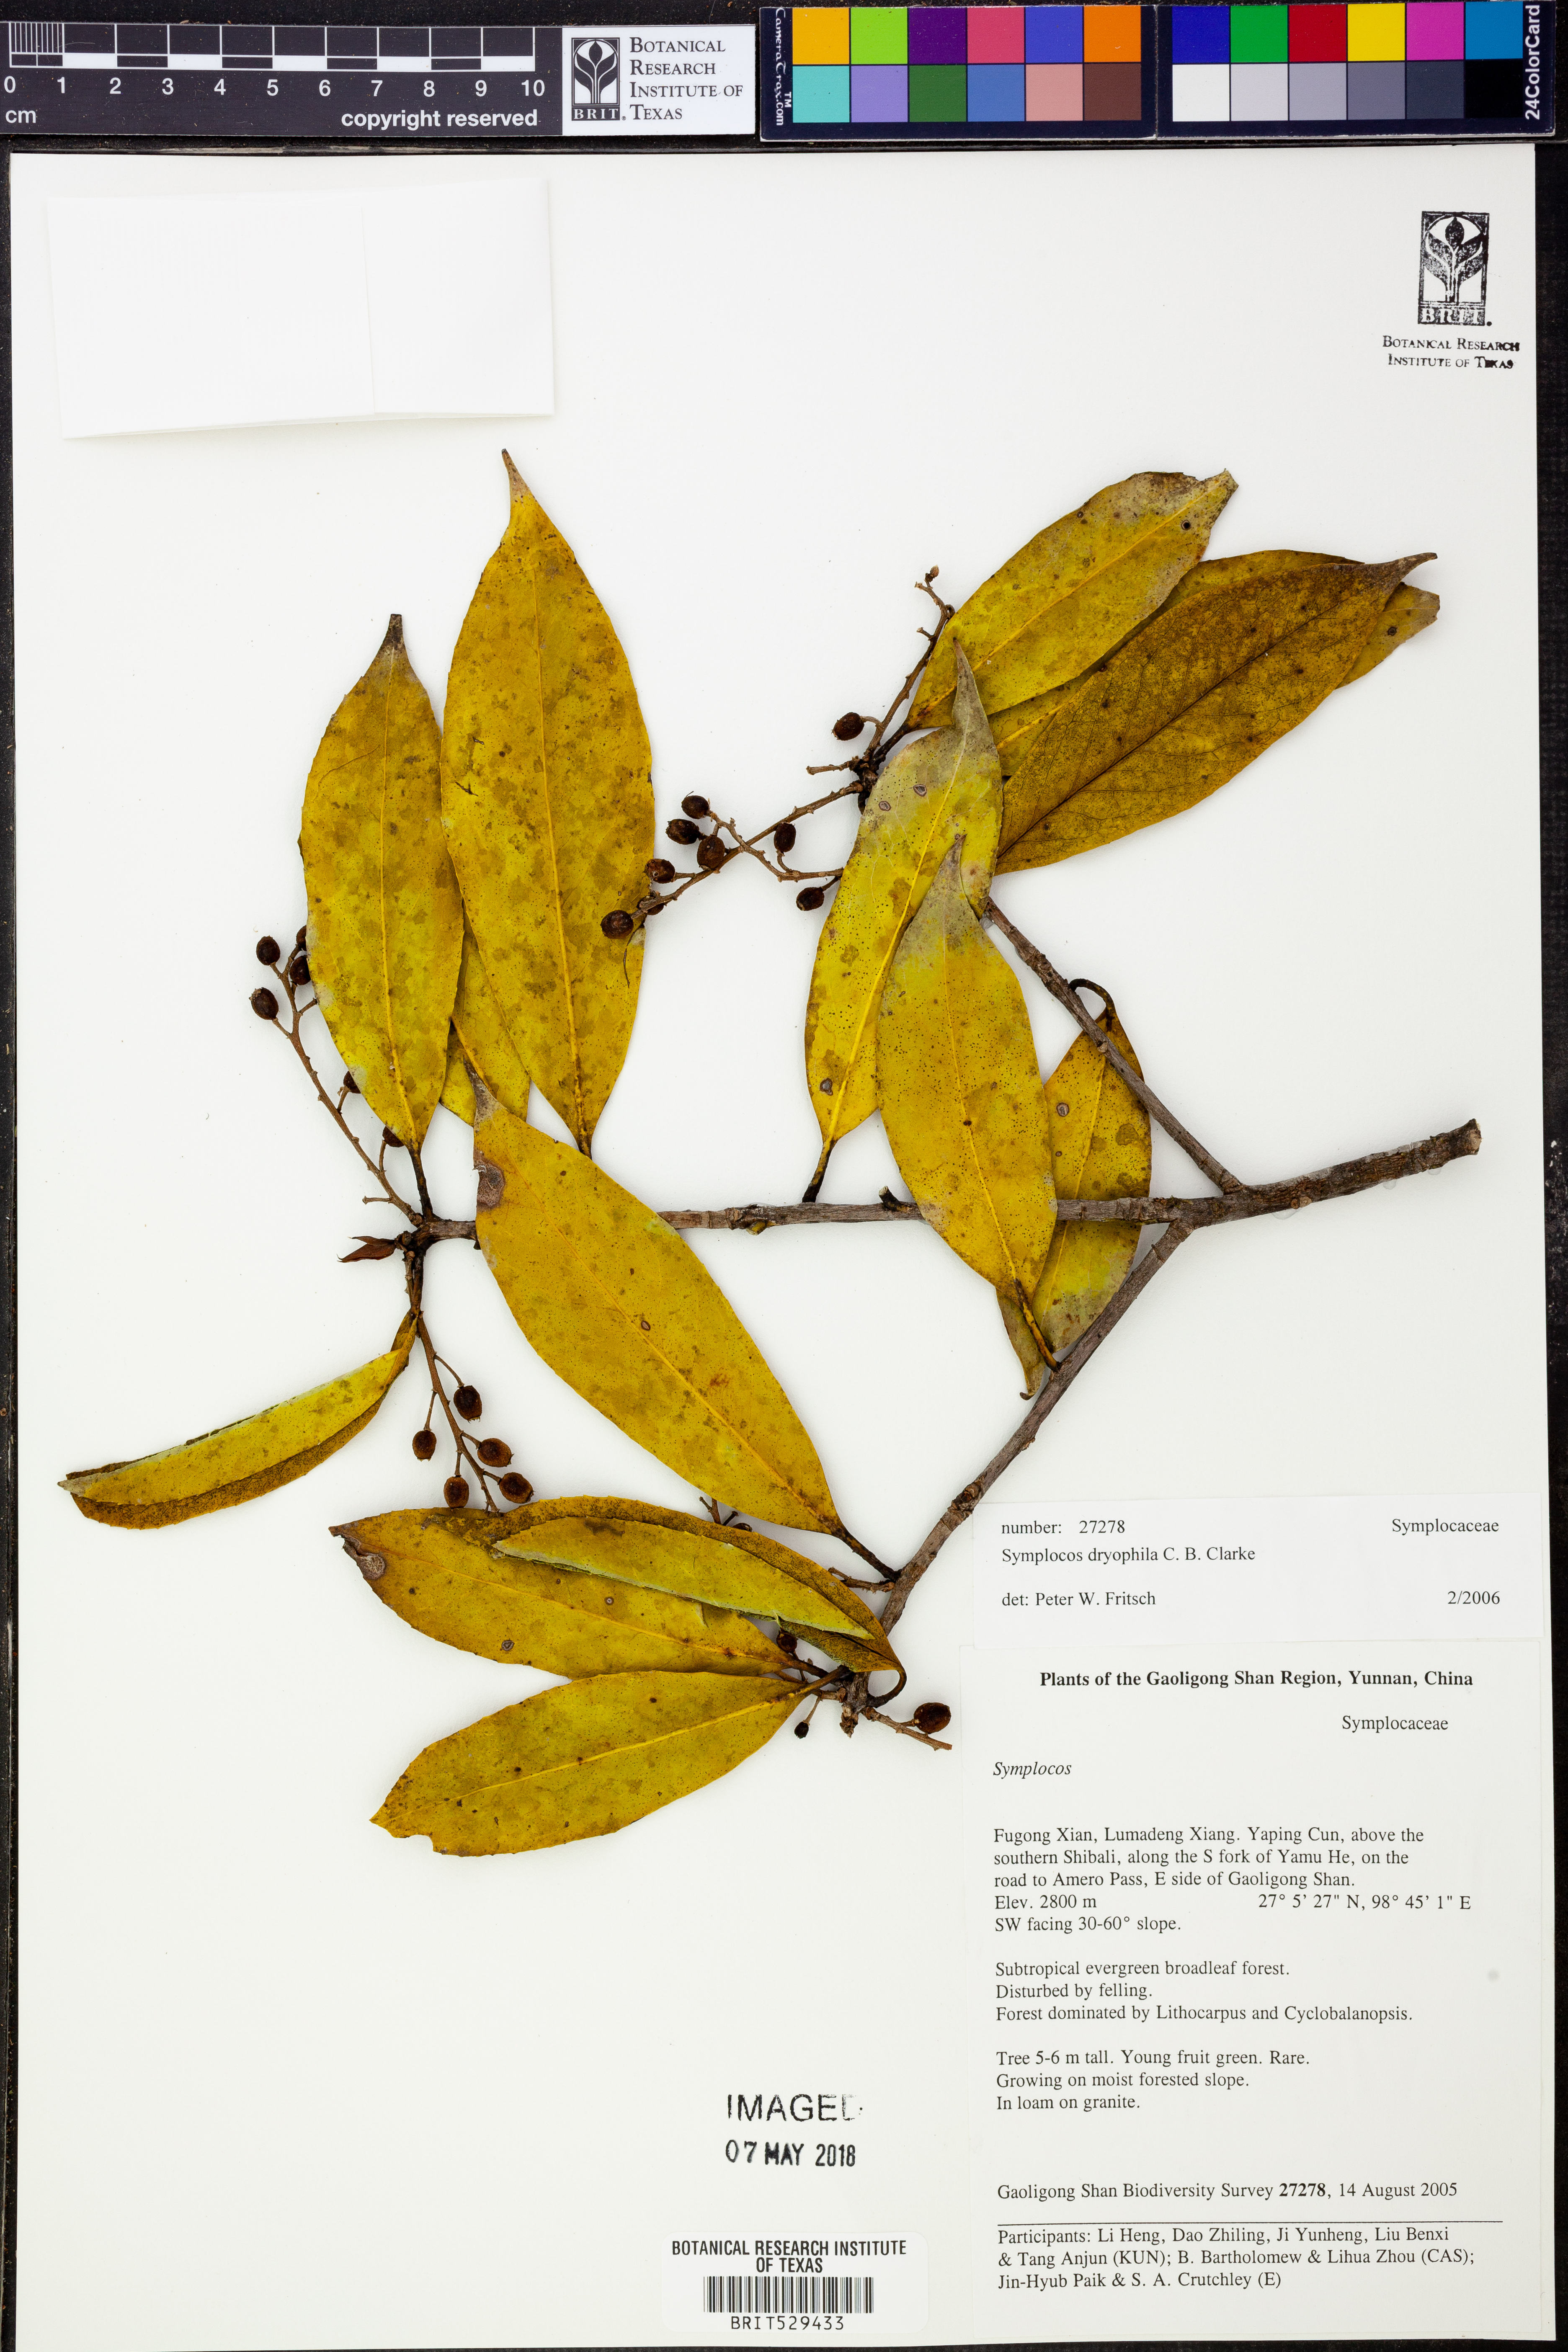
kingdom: Plantae
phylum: Tracheophyta
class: Magnoliopsida
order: Ericales
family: Symplocaceae
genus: Symplocos
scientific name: Symplocos dryophila
